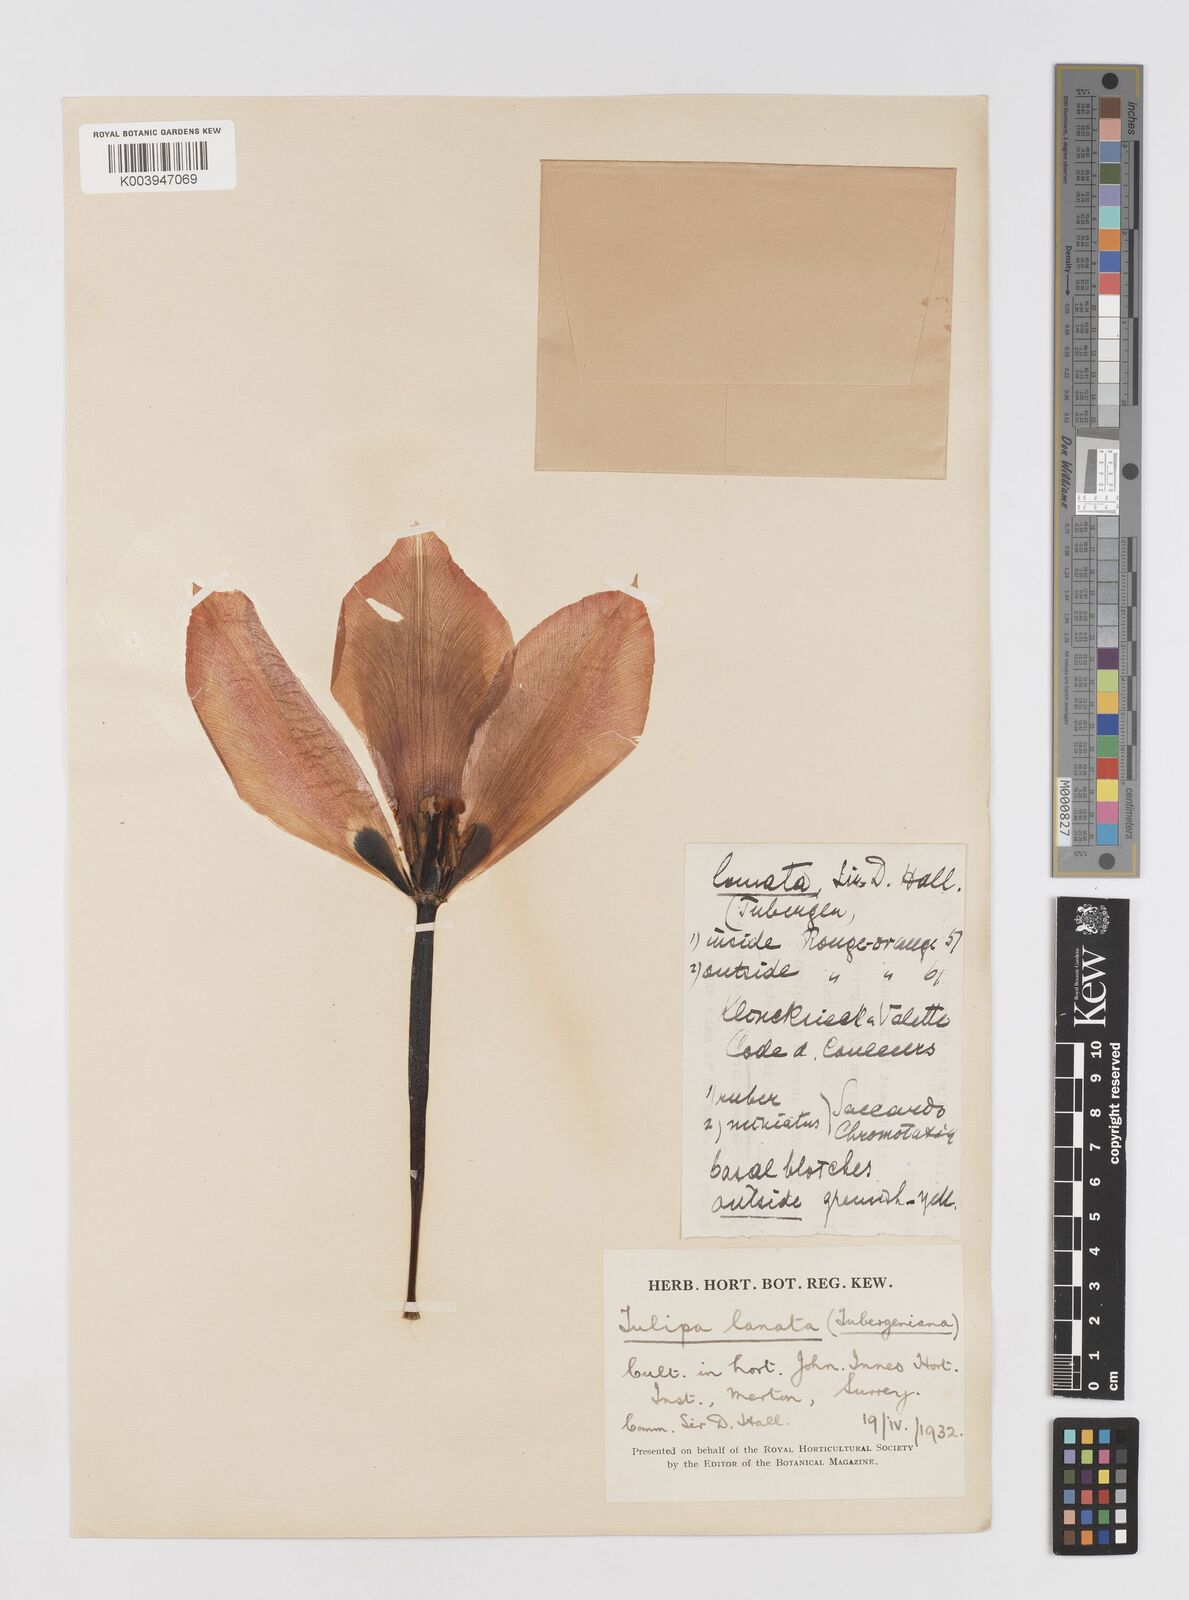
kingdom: Plantae
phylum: Tracheophyta
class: Liliopsida
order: Liliales
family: Liliaceae
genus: Tulipa
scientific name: Tulipa lanata
